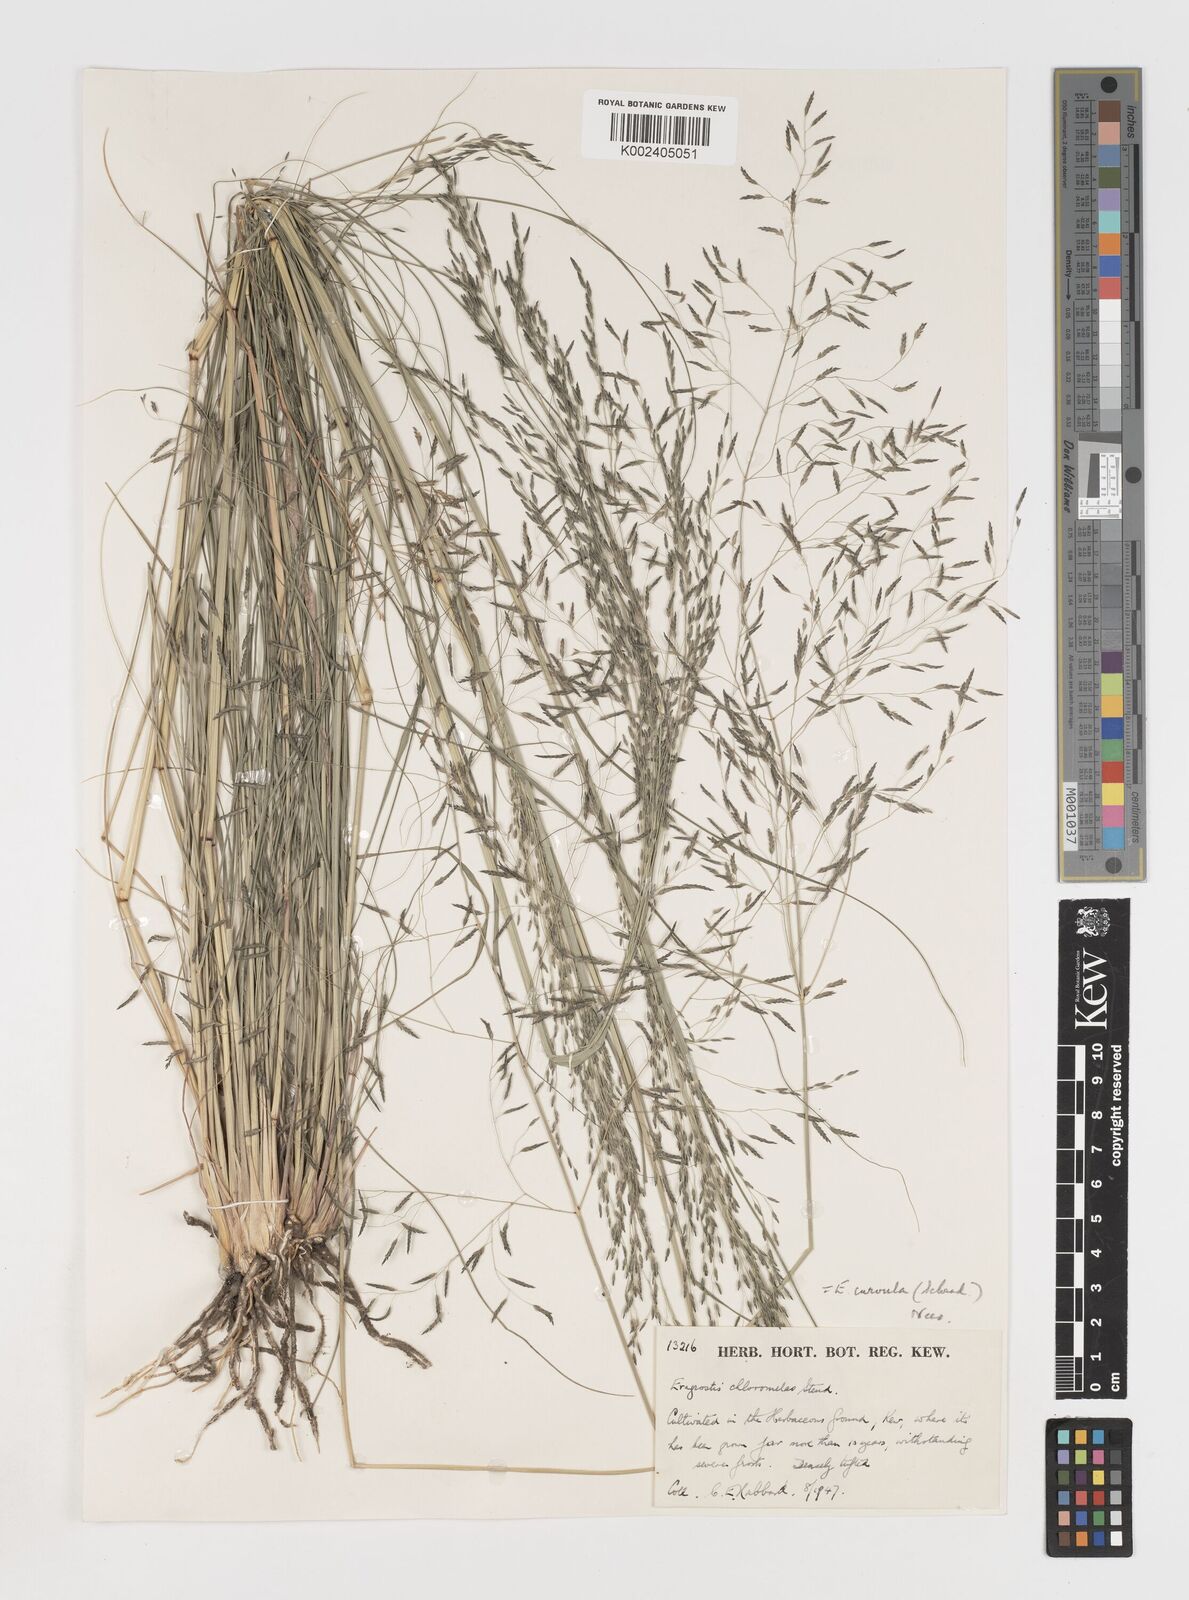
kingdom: Plantae
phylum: Tracheophyta
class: Liliopsida
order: Poales
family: Poaceae
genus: Eragrostis
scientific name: Eragrostis curvula
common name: African love-grass
